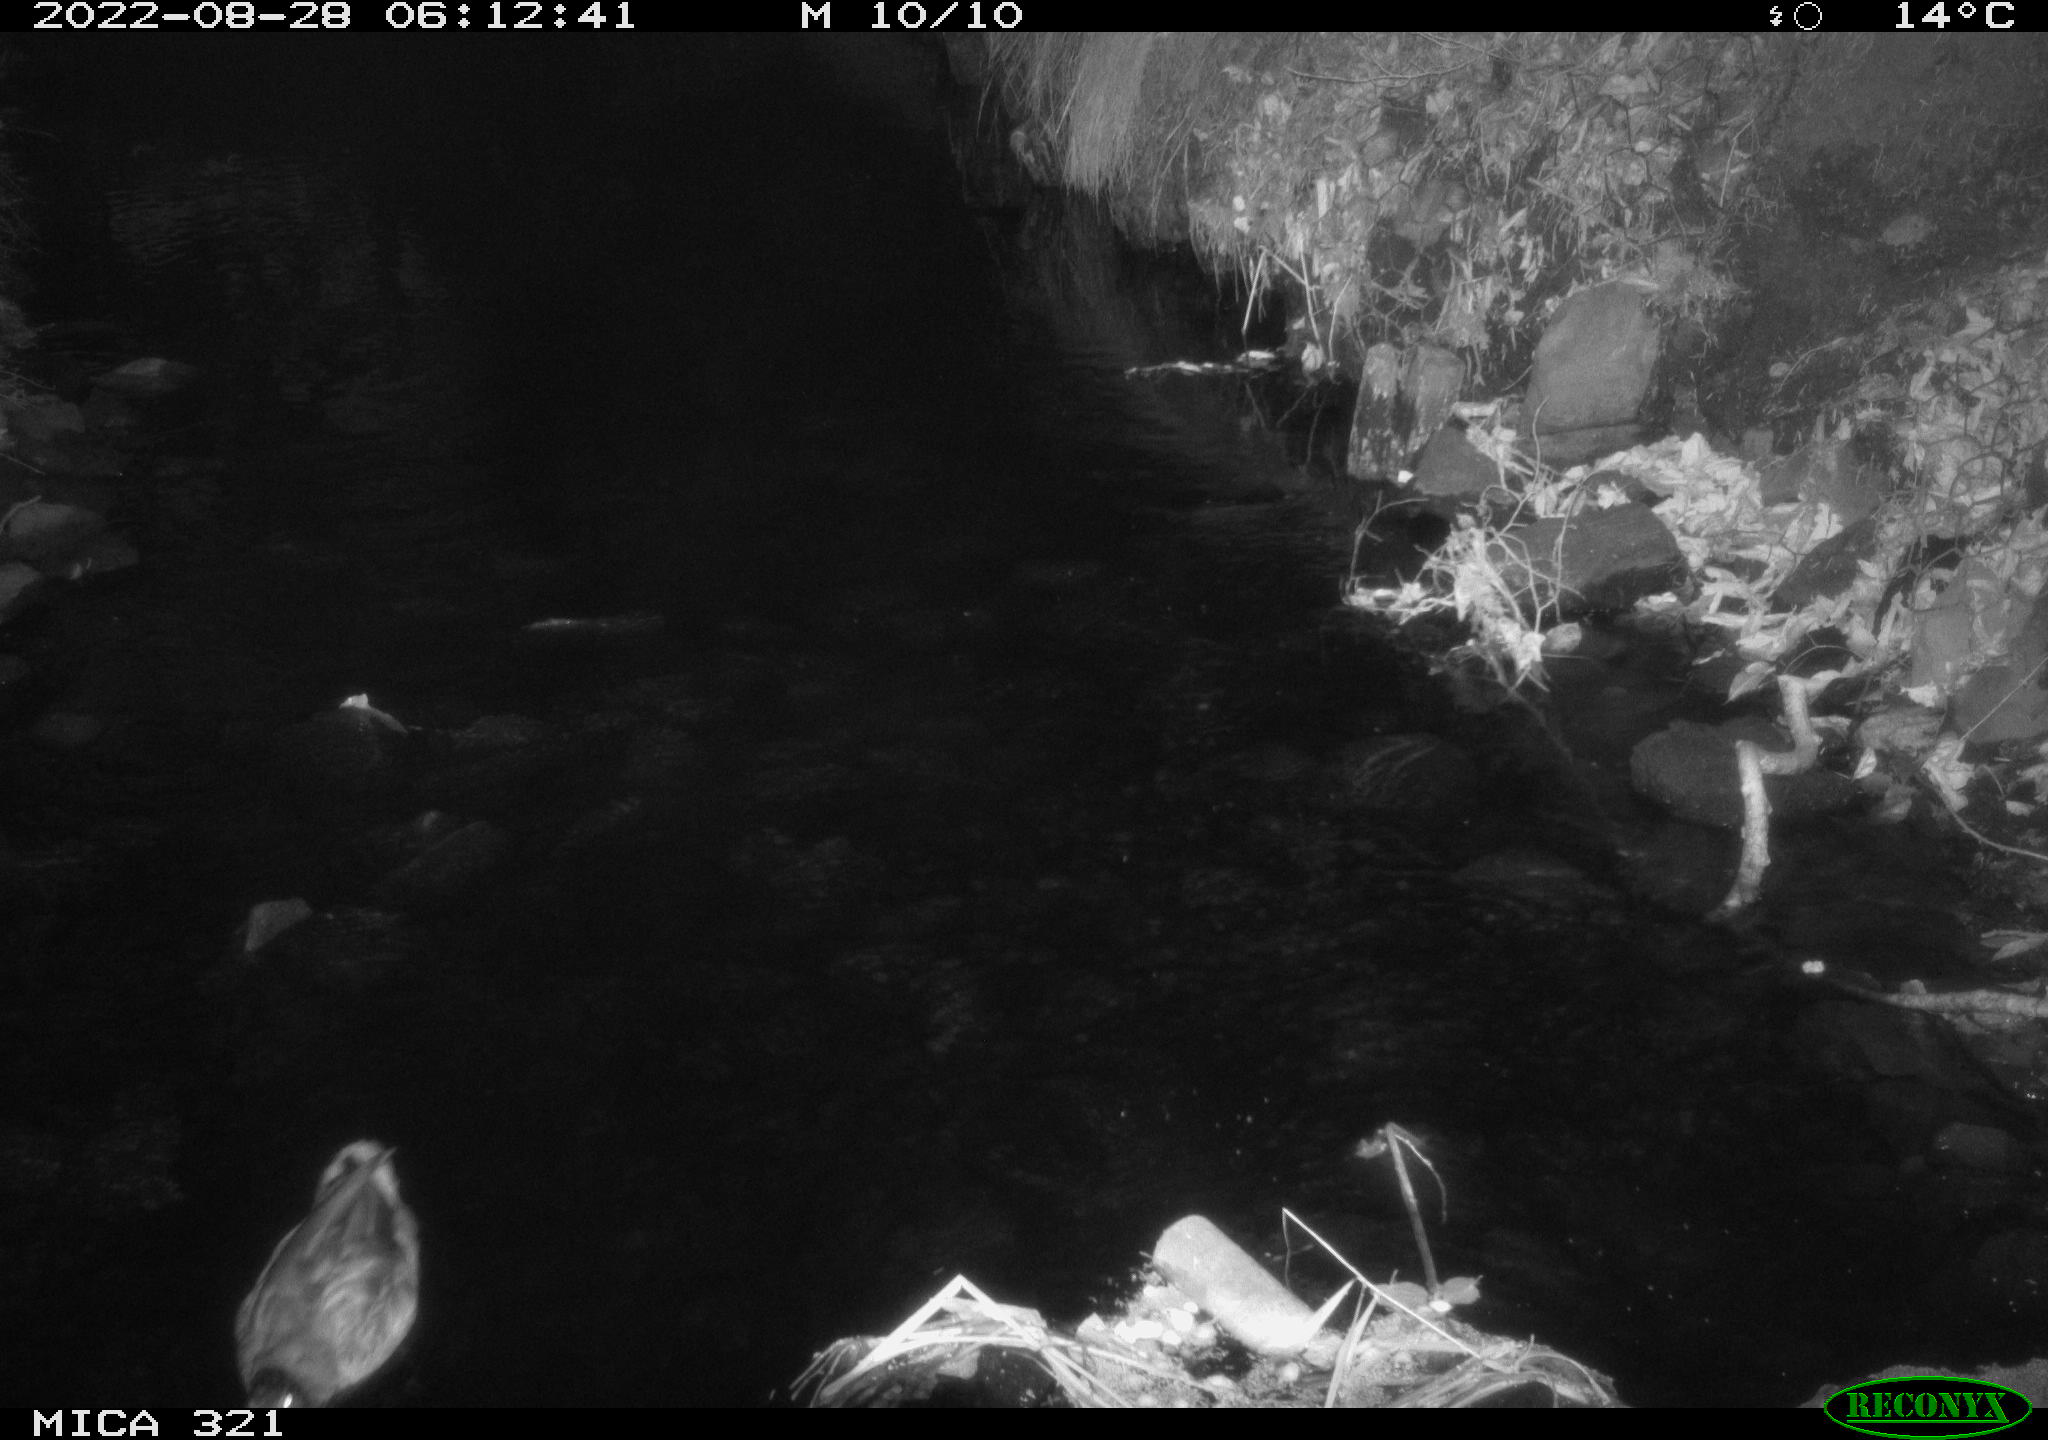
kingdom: Animalia
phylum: Chordata
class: Aves
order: Anseriformes
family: Anatidae
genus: Anas
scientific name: Anas platyrhynchos
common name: Mallard
